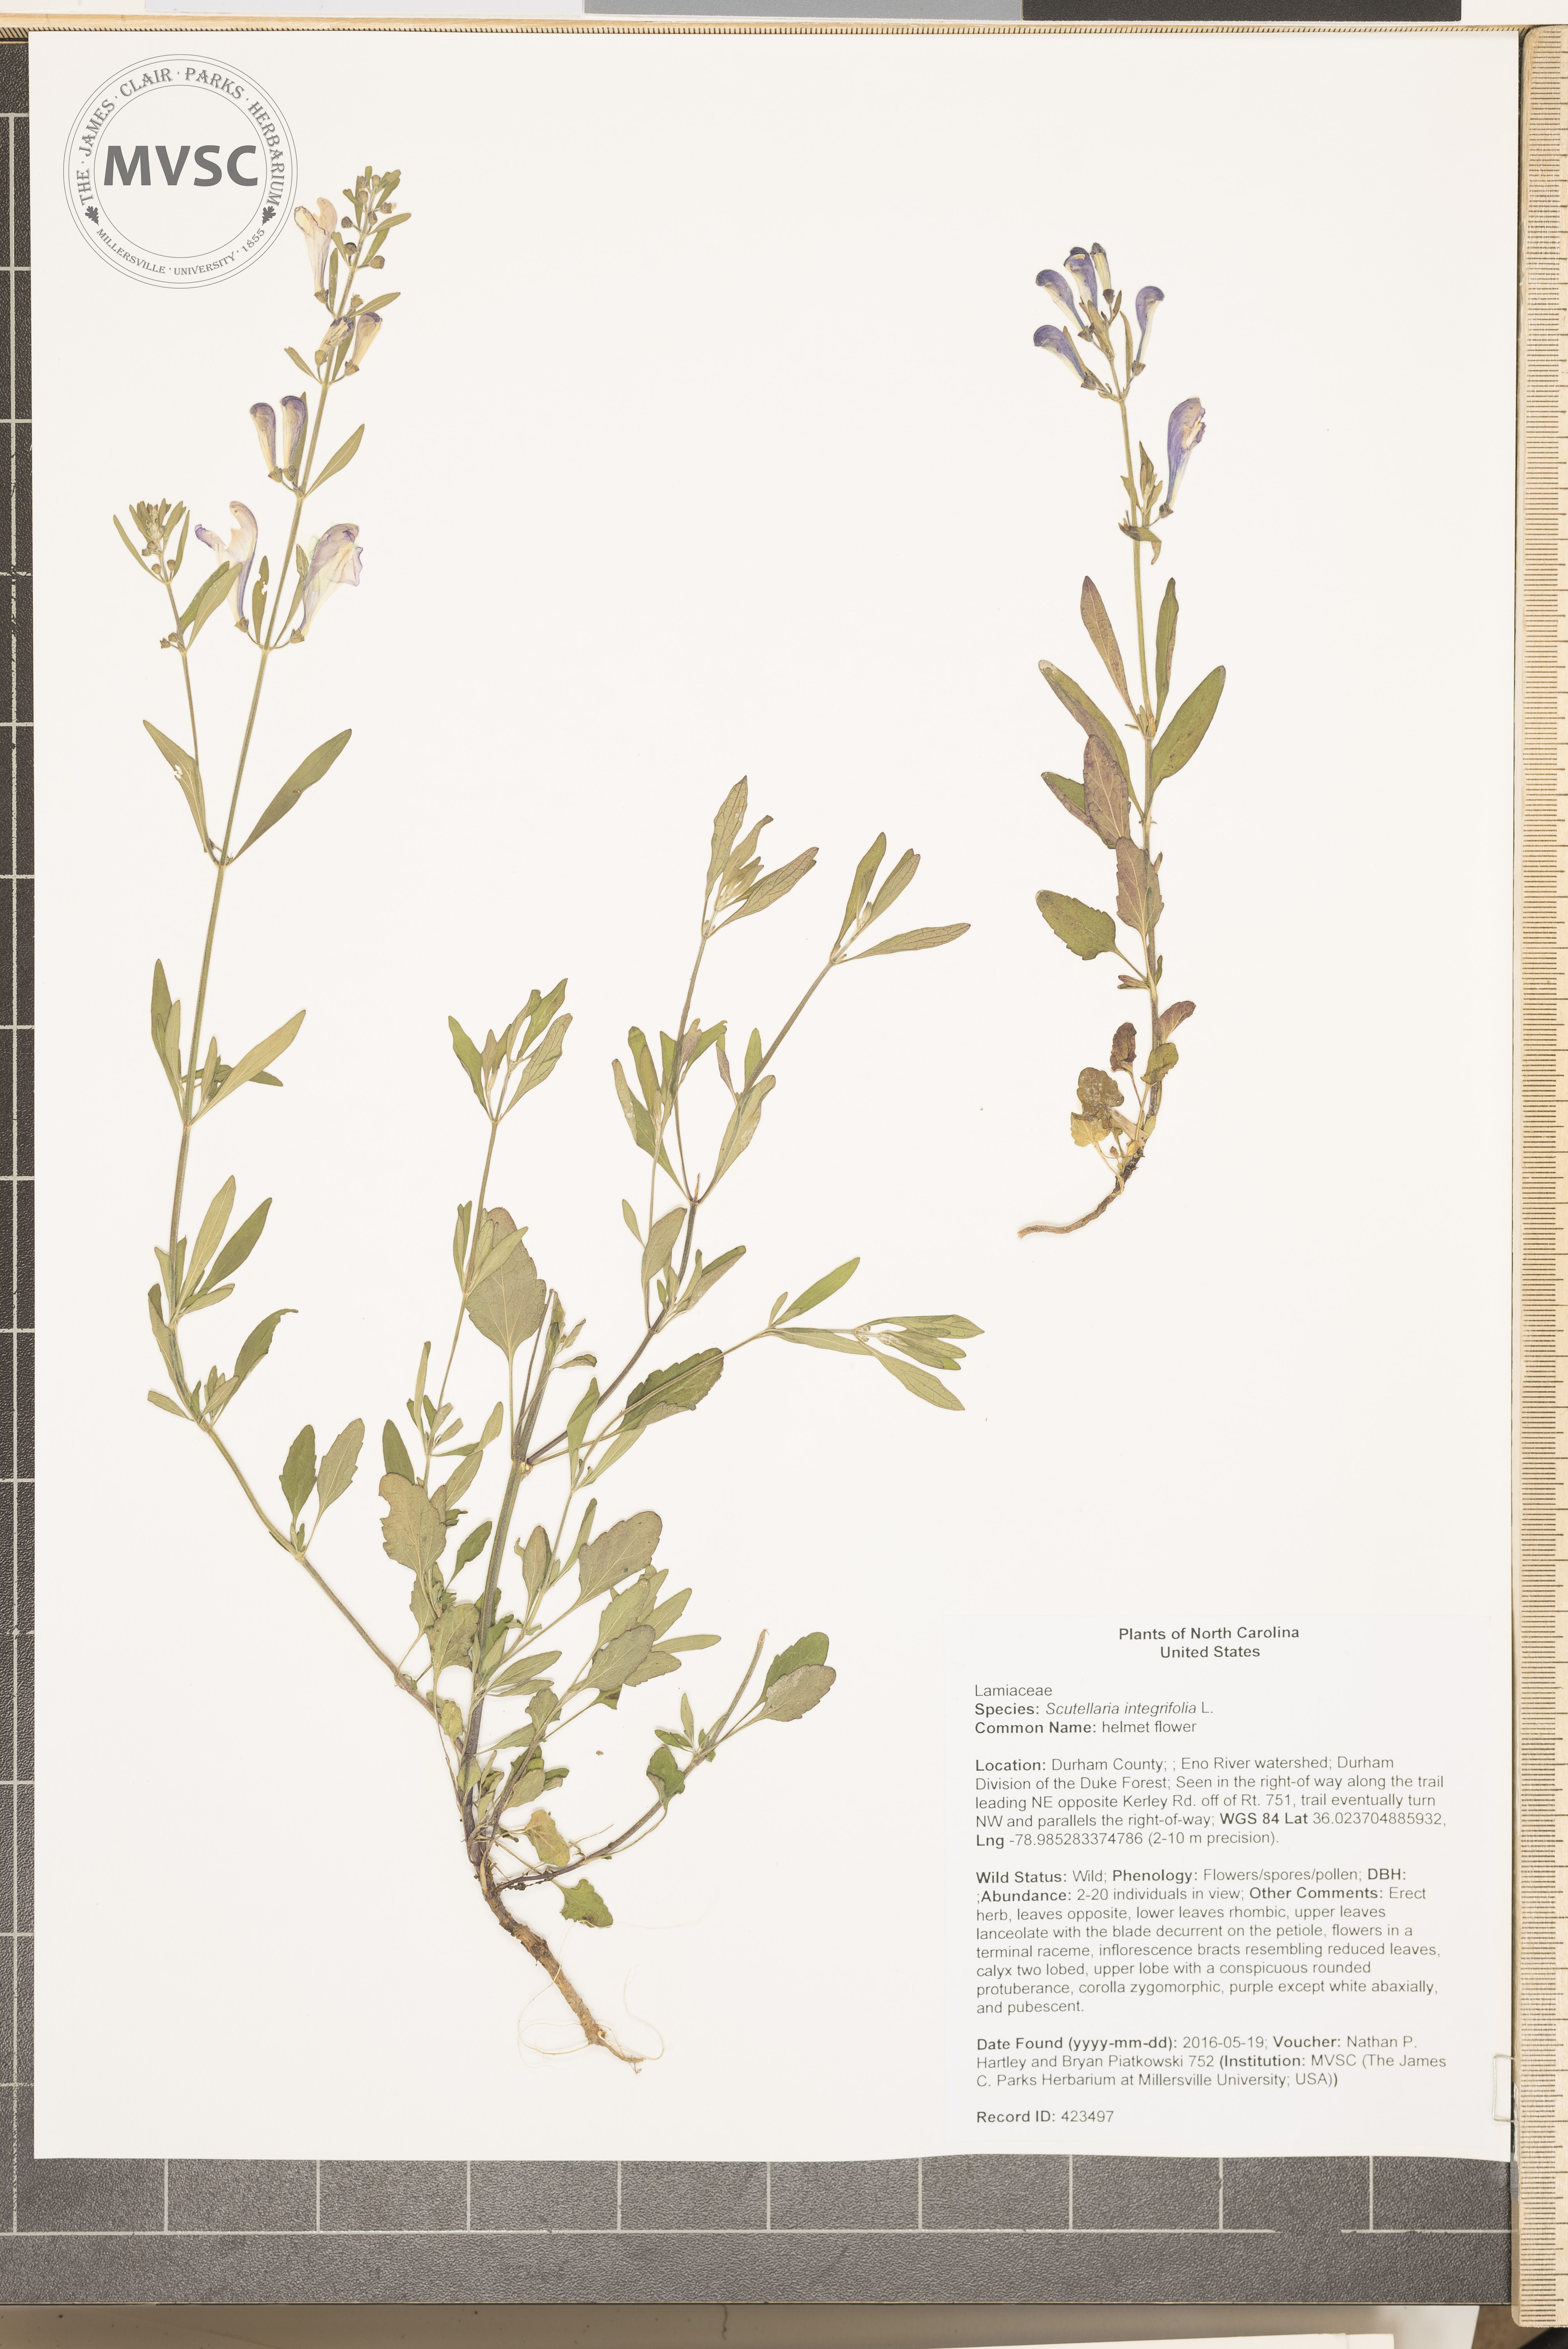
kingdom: Plantae
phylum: Tracheophyta
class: Magnoliopsida
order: Lamiales
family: Lamiaceae
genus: Scutellaria
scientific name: Scutellaria integrifolia
